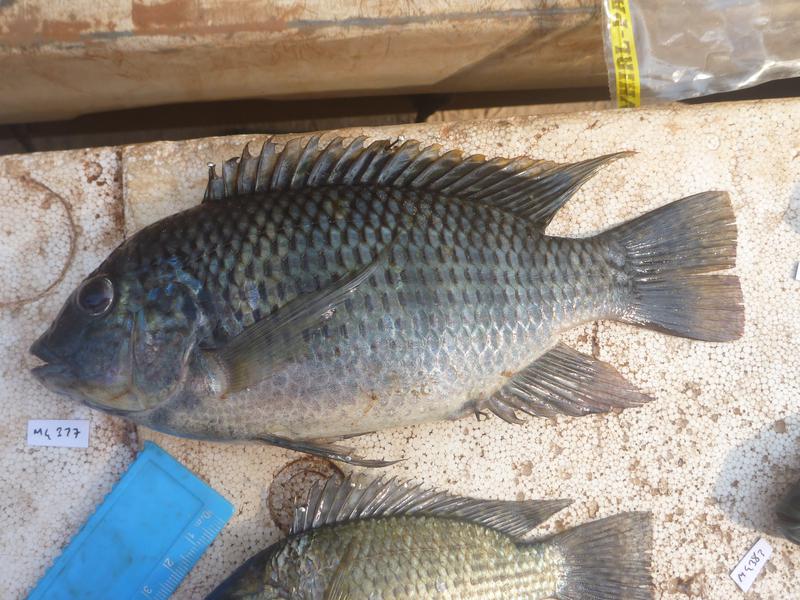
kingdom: Animalia
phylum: Chordata
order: Perciformes
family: Cichlidae
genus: Oreochromis
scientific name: Oreochromis leucostictus
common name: Blue spotted tilapia
